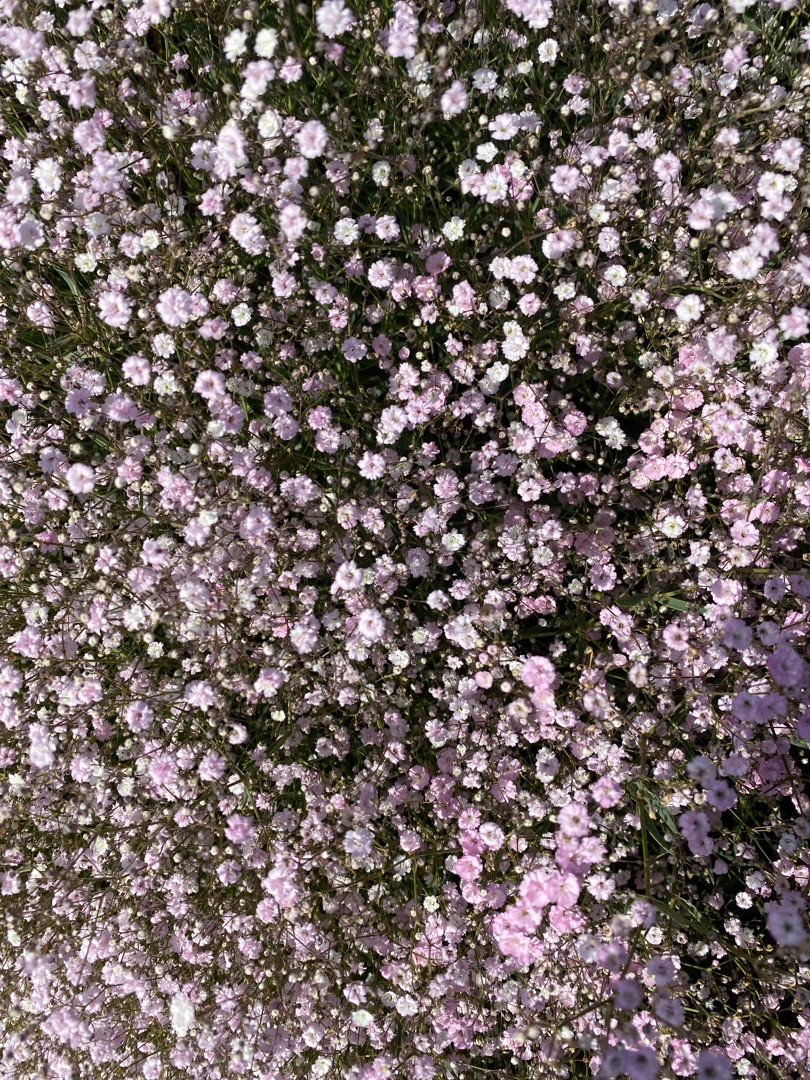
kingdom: Plantae
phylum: Tracheophyta
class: Magnoliopsida
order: Caryophyllales
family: Caryophyllaceae
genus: Gypsophila
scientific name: Gypsophila paniculata
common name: Flerårig brudeslør
